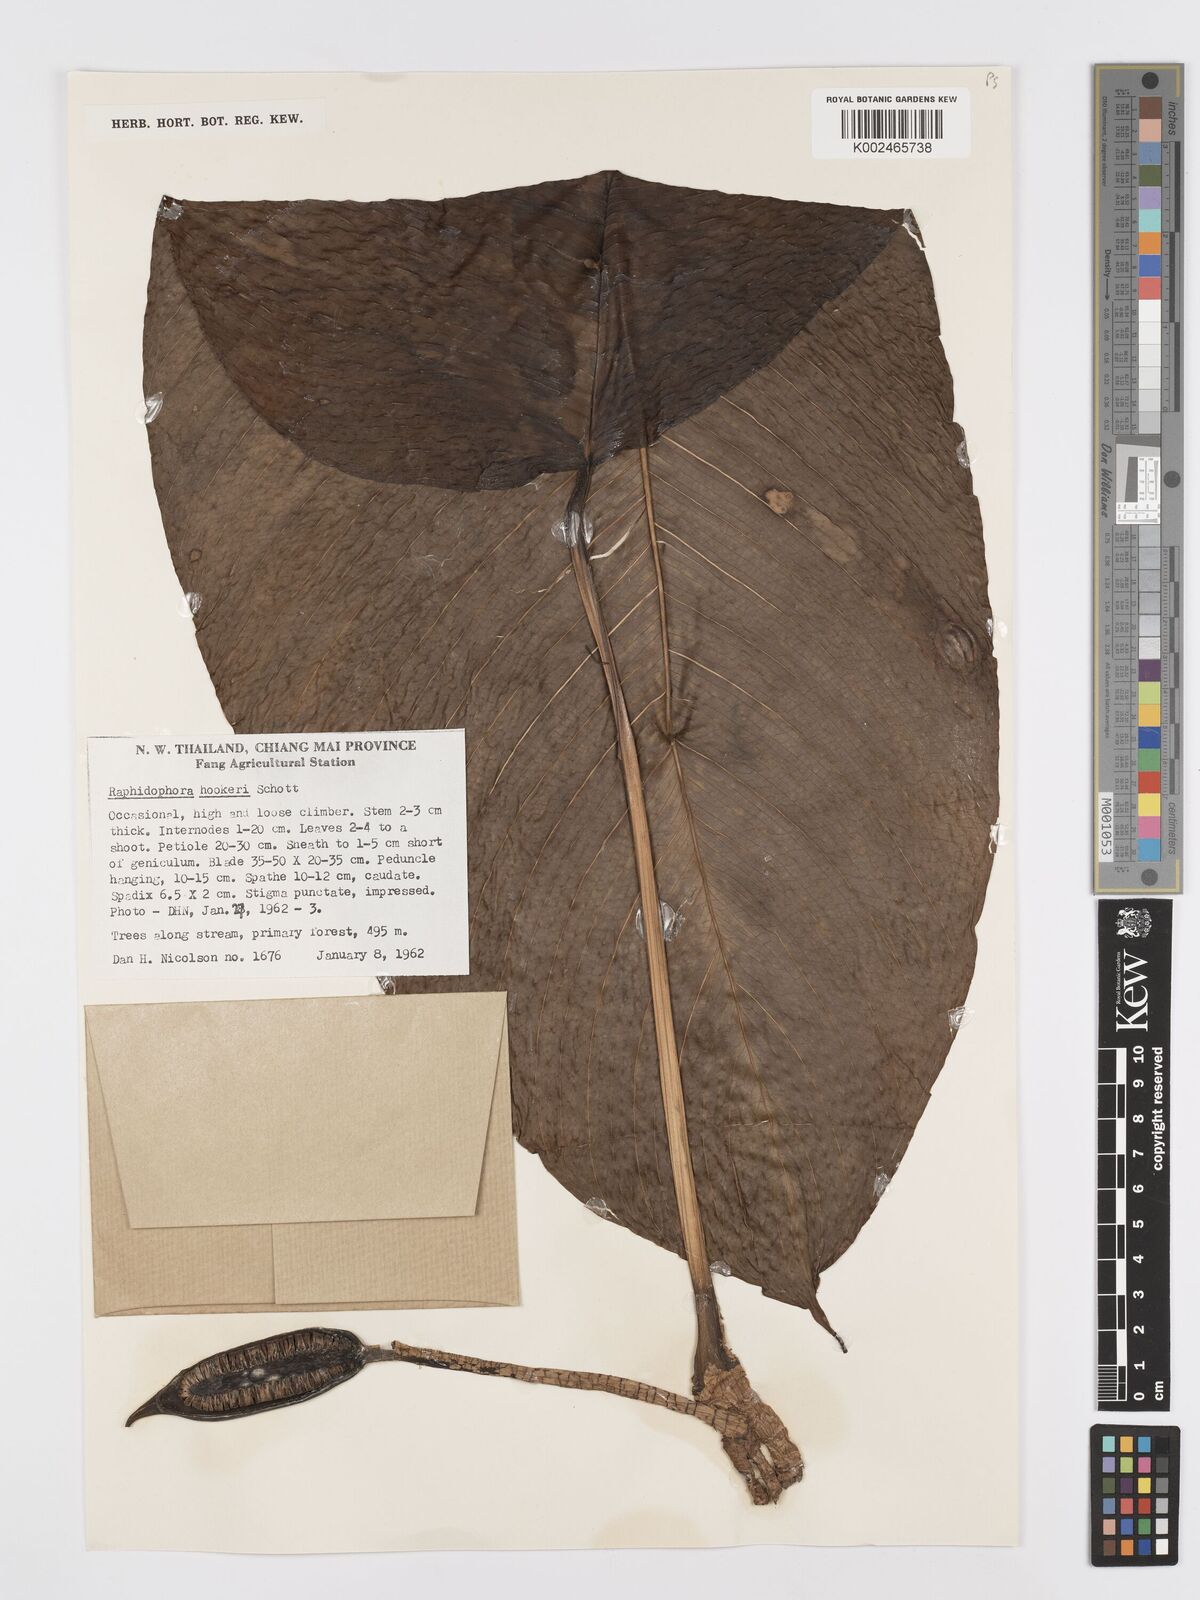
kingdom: Plantae
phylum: Tracheophyta
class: Liliopsida
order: Alismatales
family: Araceae
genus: Rhaphidophora
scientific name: Rhaphidophora hookeri
